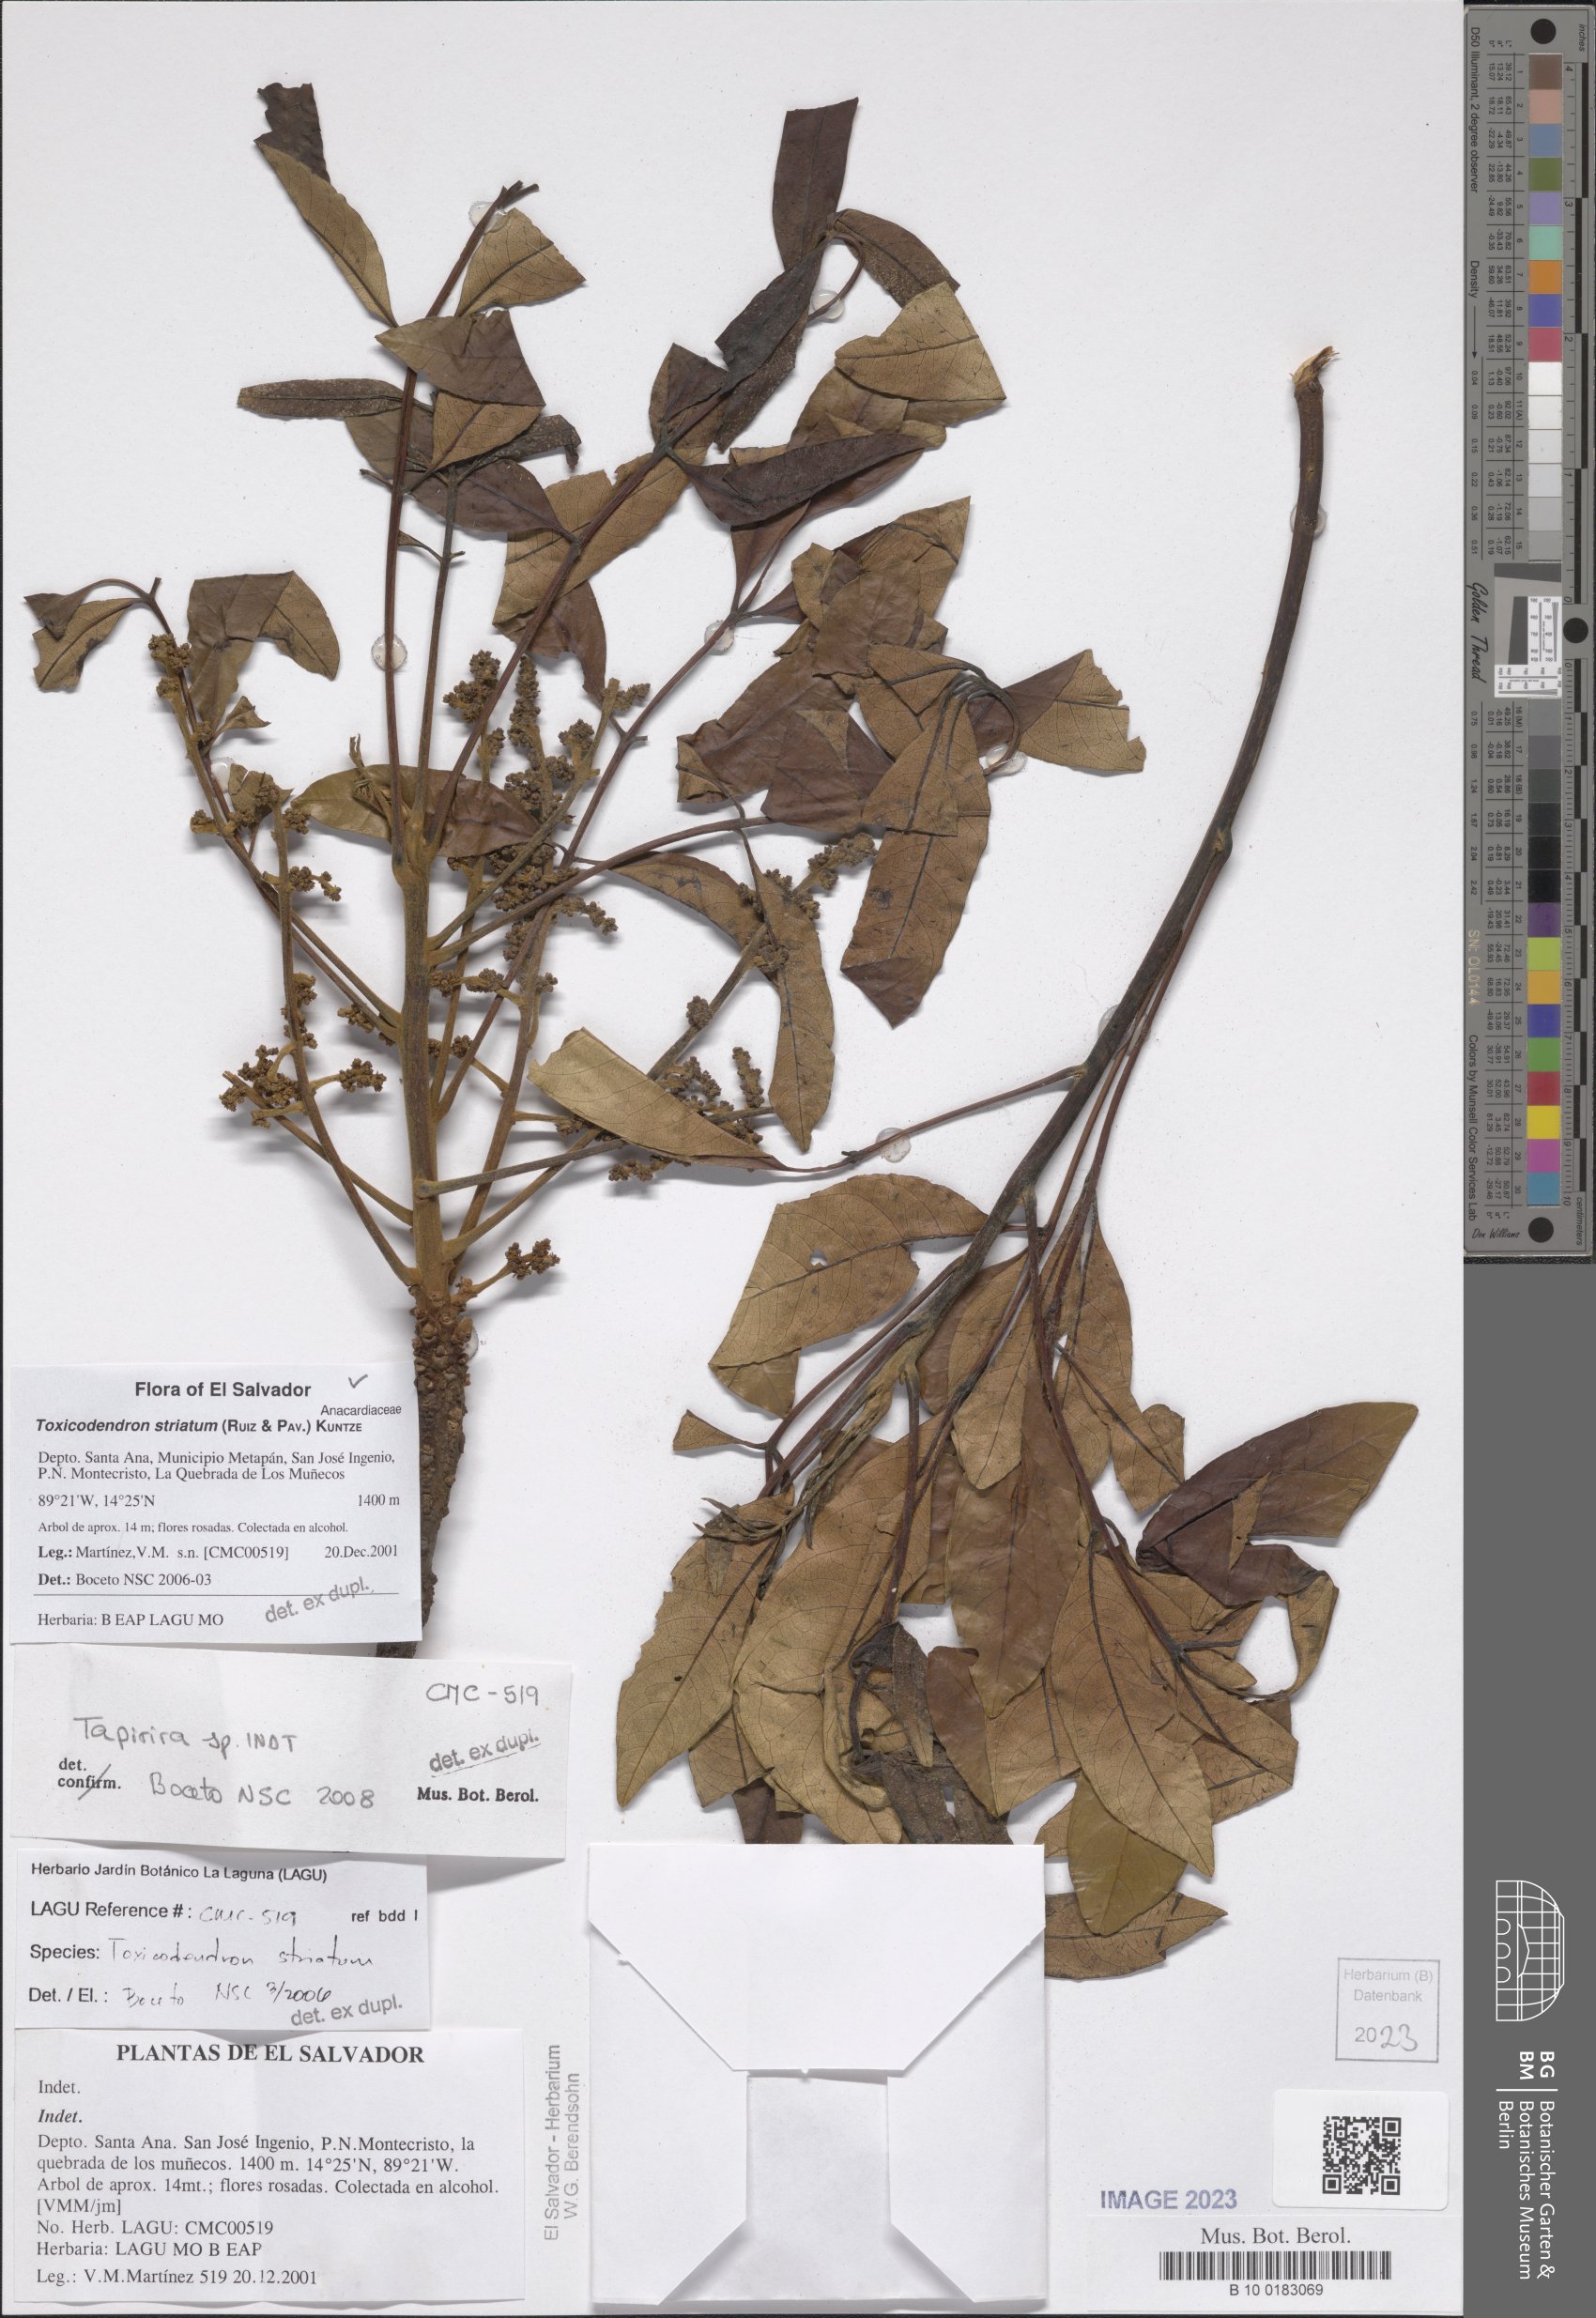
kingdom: Plantae
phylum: Tracheophyta
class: Magnoliopsida
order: Sapindales
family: Anacardiaceae
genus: Toxicodendron
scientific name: Toxicodendron striatum
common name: Sumac
